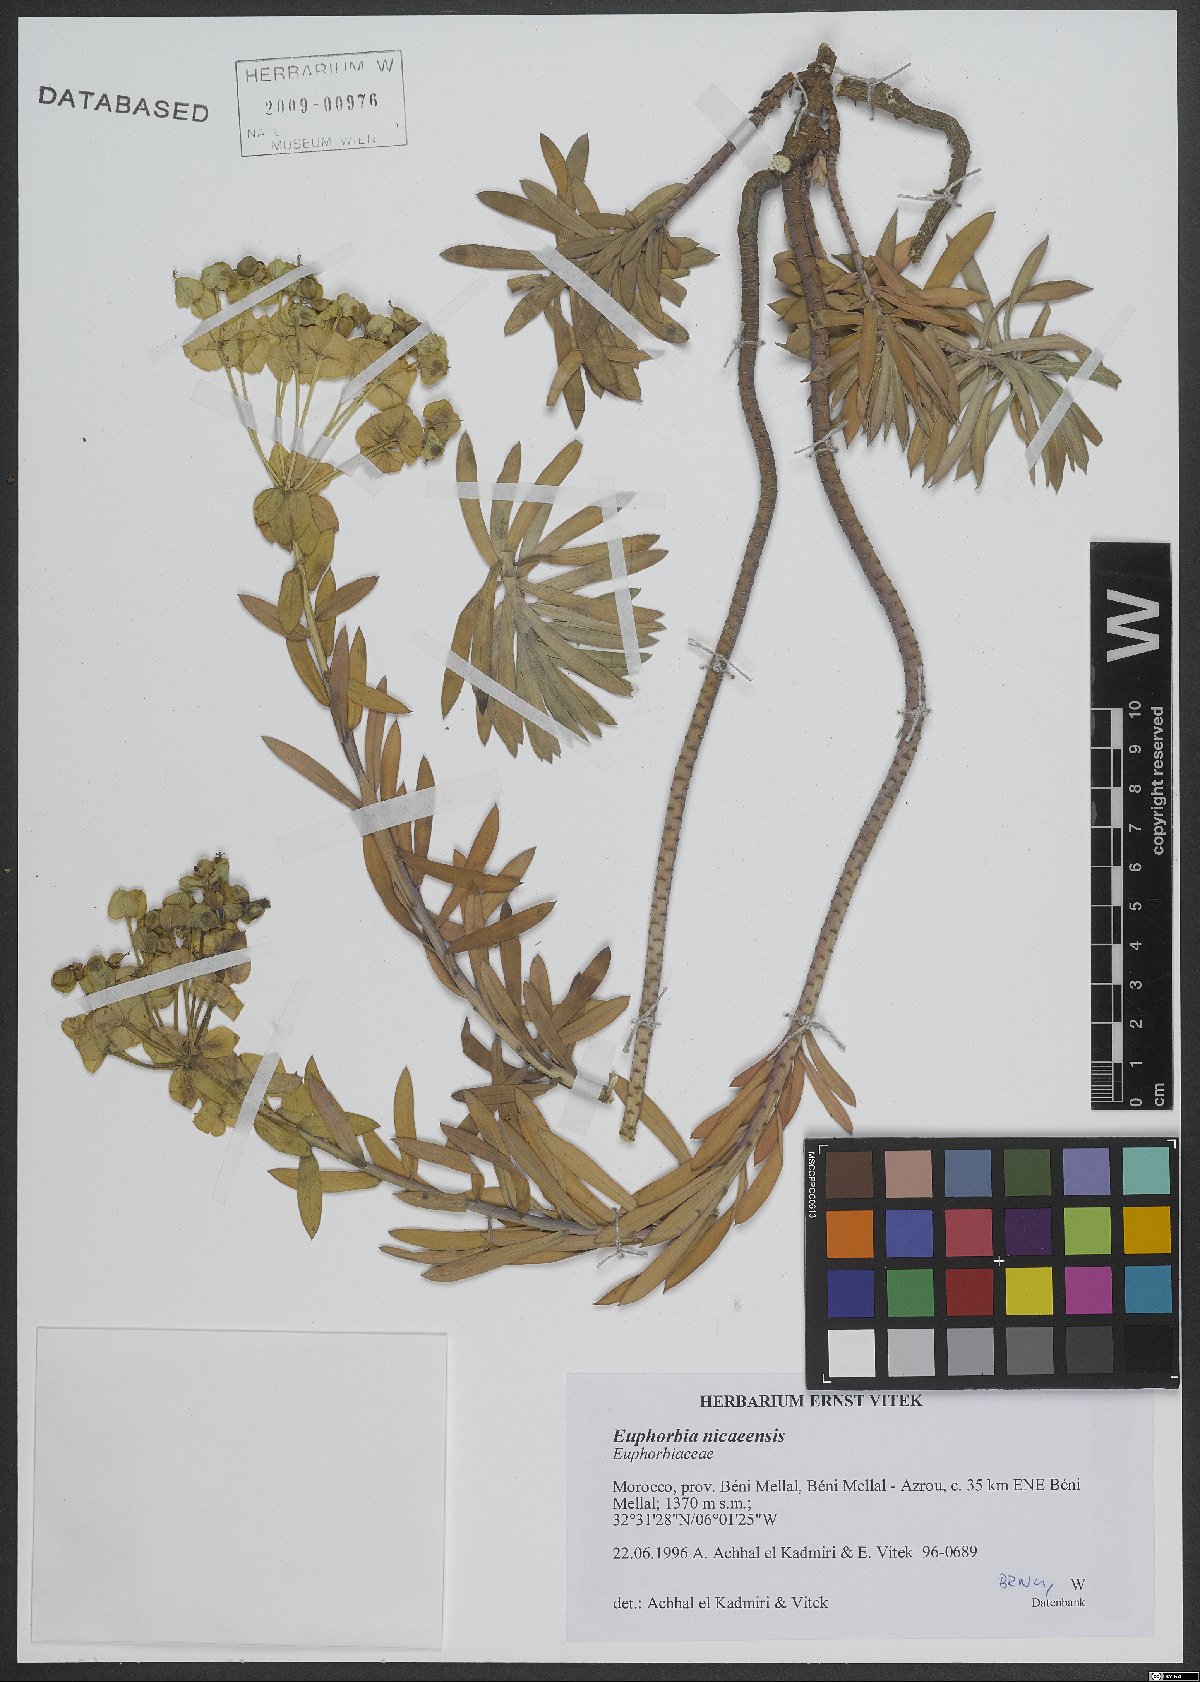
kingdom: Plantae
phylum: Tracheophyta
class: Magnoliopsida
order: Malpighiales
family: Euphorbiaceae
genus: Euphorbia
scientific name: Euphorbia nicaeensis
